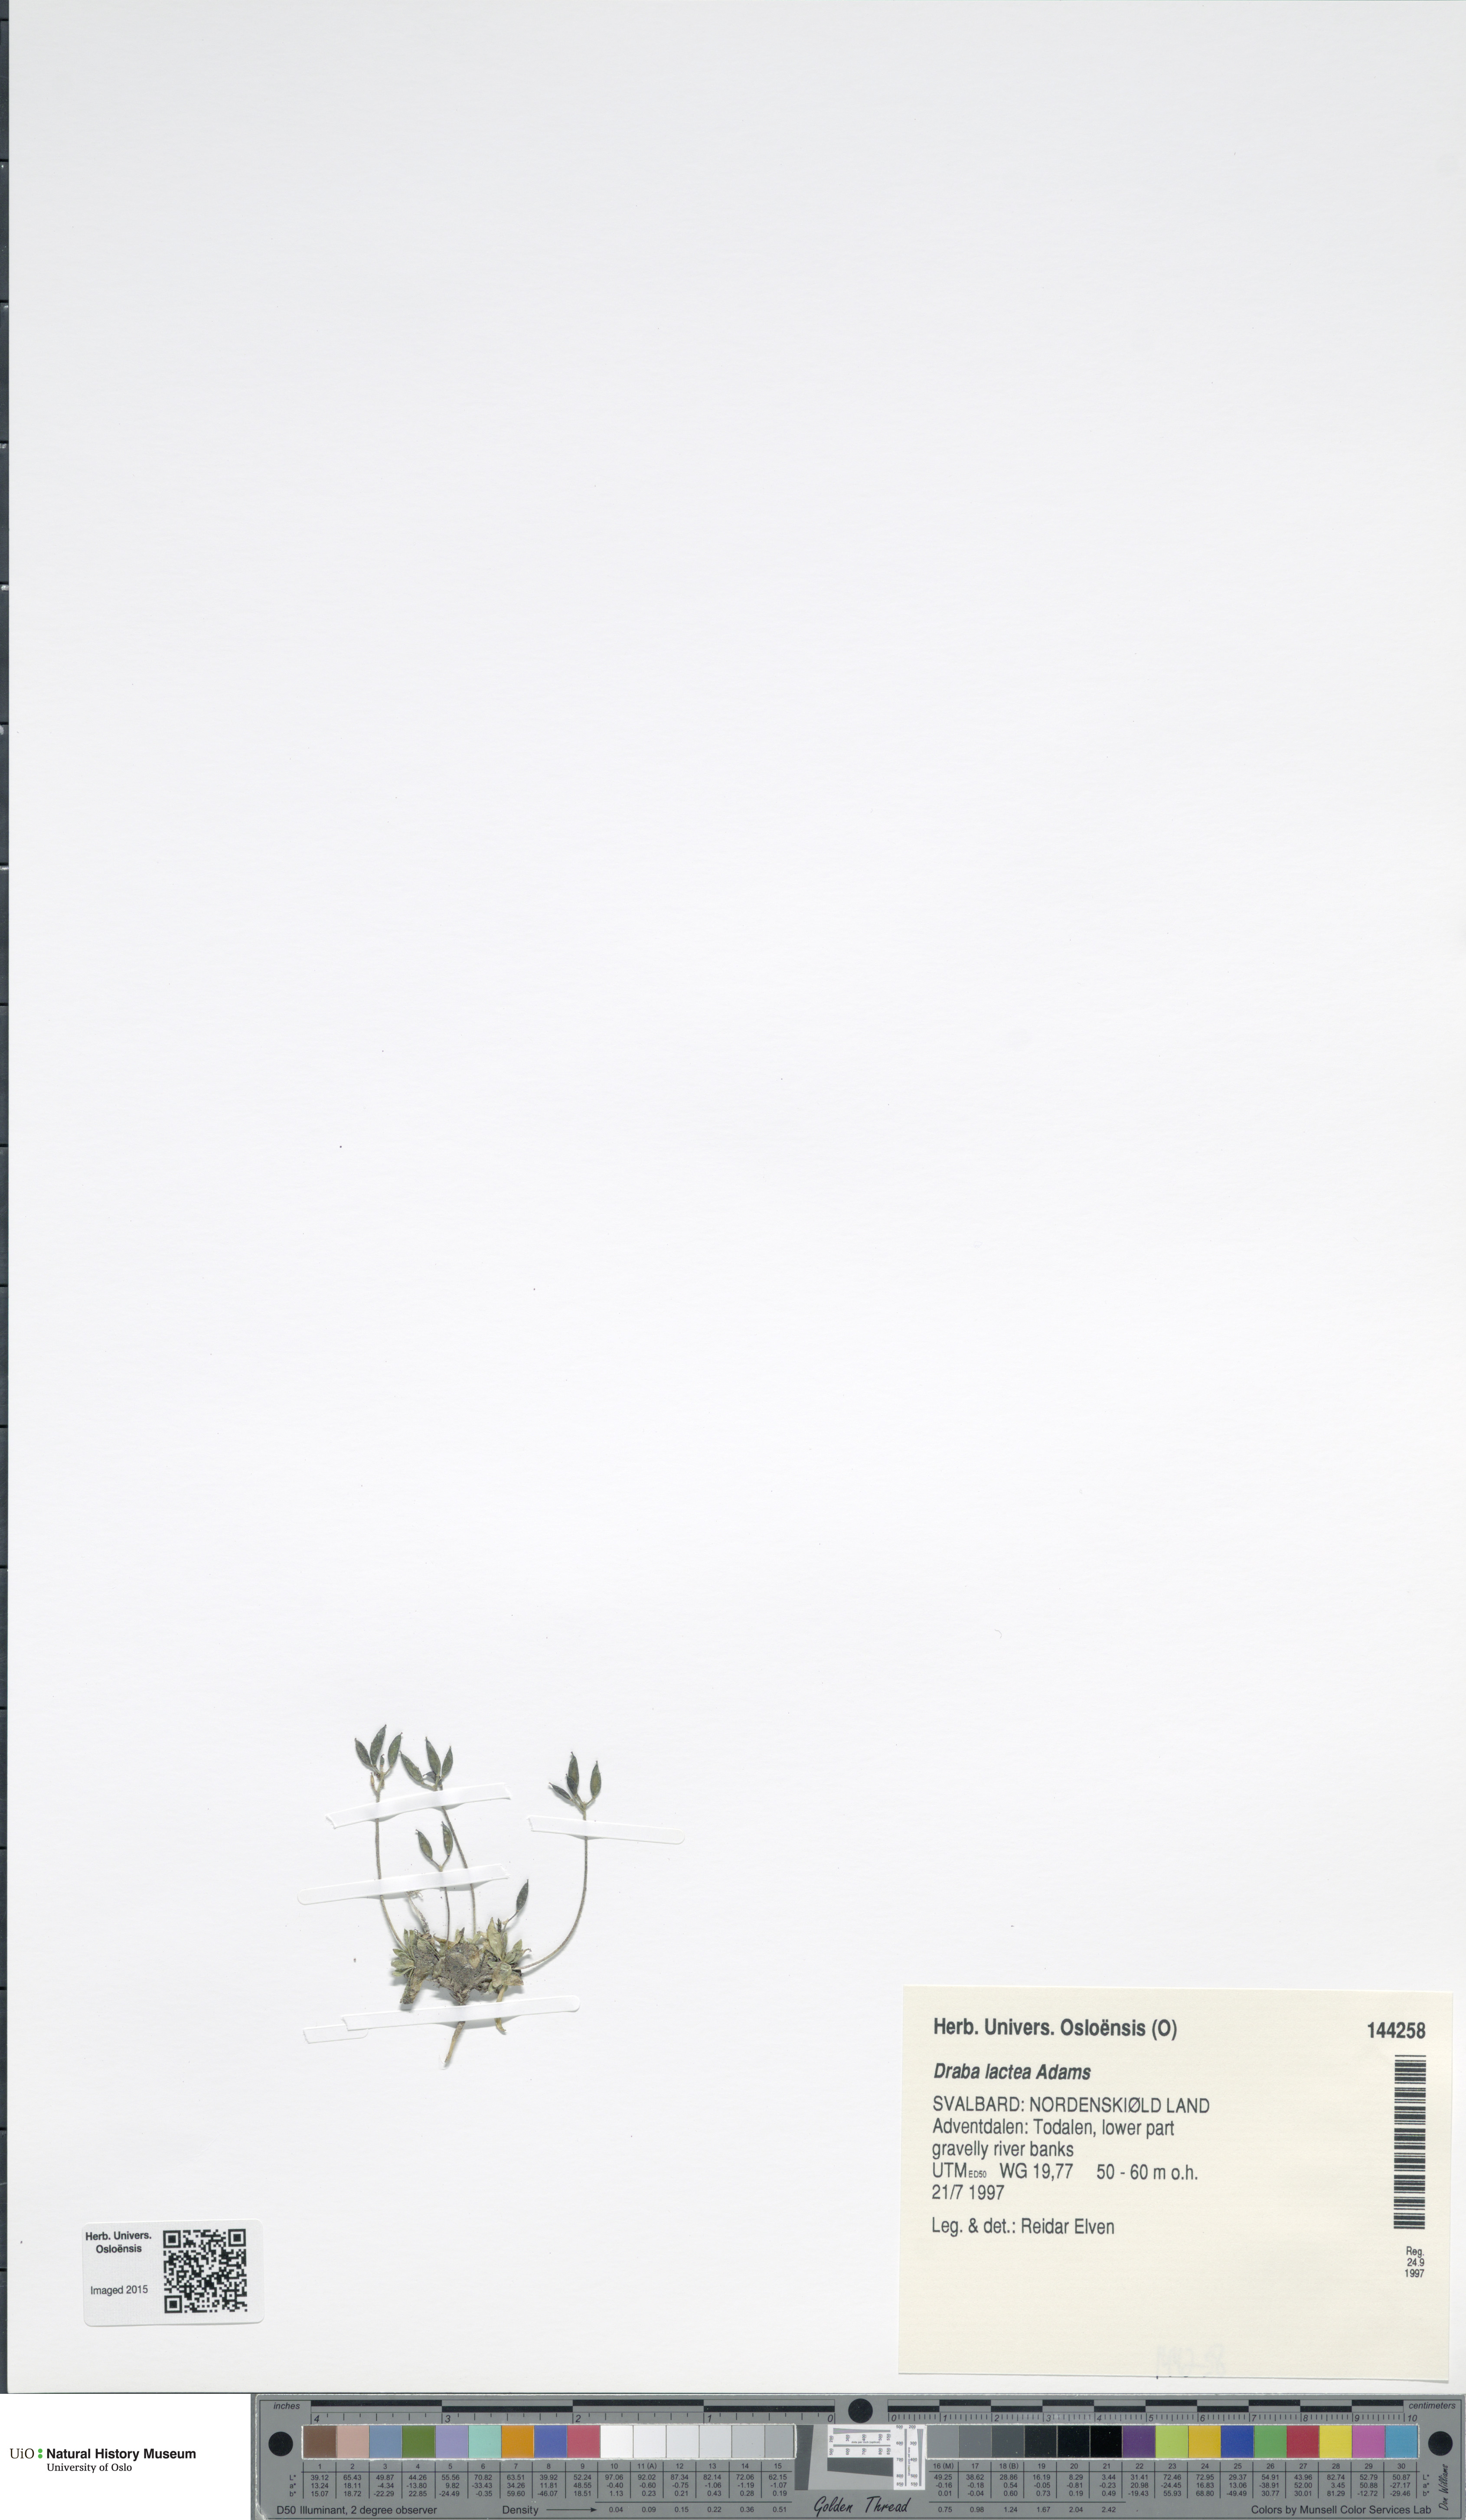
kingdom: Plantae
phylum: Tracheophyta
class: Magnoliopsida
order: Brassicales
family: Brassicaceae
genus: Draba
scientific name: Draba lactea
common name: Milky draba
